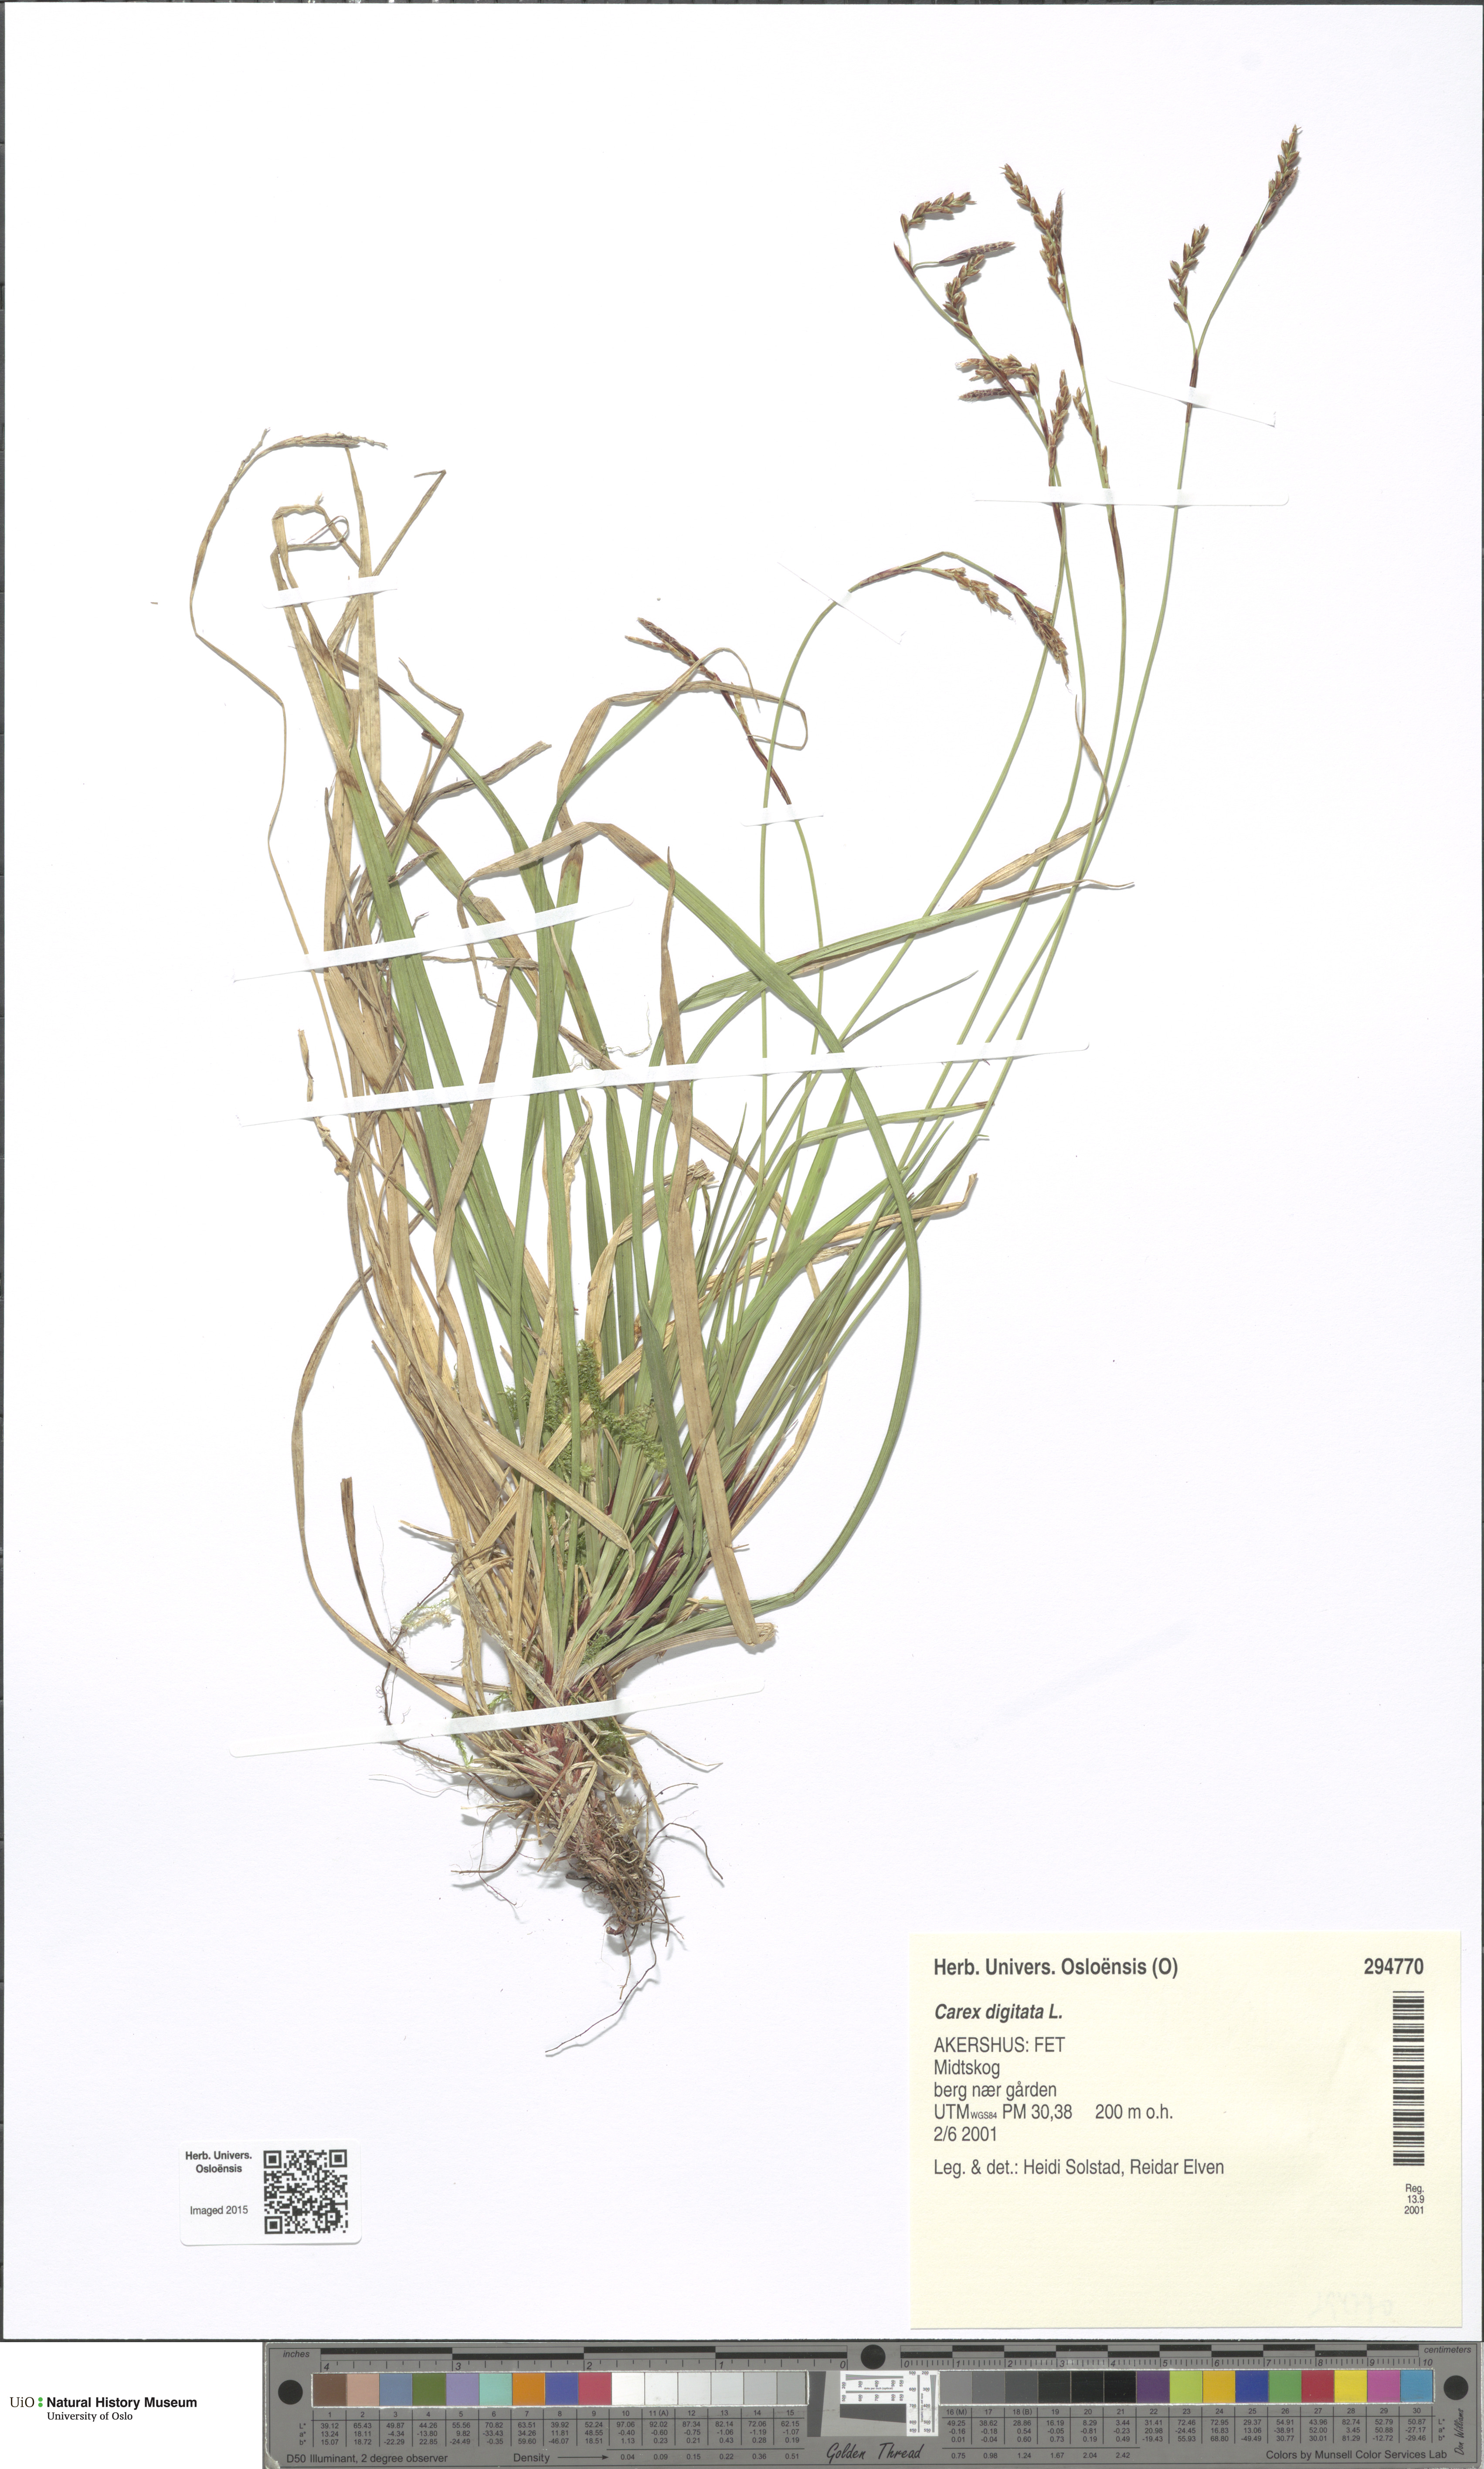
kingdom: Plantae
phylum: Tracheophyta
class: Liliopsida
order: Poales
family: Cyperaceae
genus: Carex
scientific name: Carex digitata
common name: Fingered sedge
